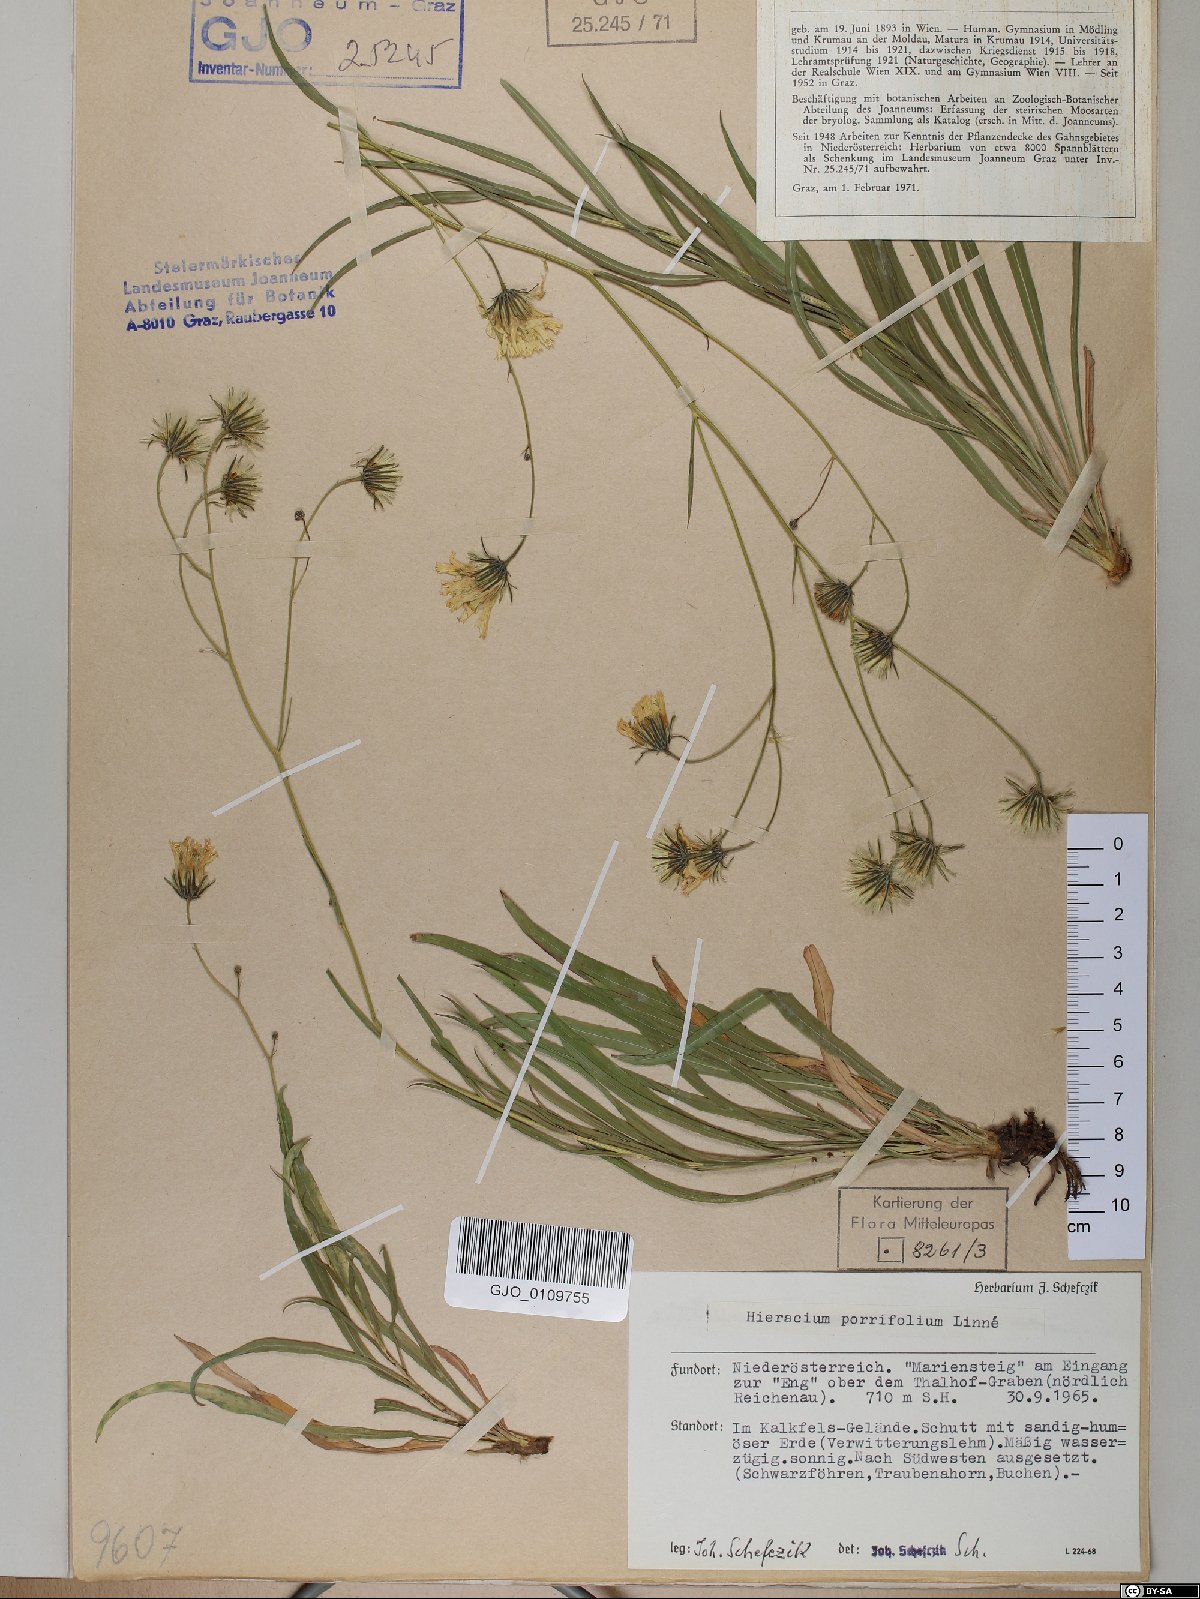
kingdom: Plantae
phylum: Tracheophyta
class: Magnoliopsida
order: Asterales
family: Asteraceae
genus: Hieracium
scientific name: Hieracium porrifolium
